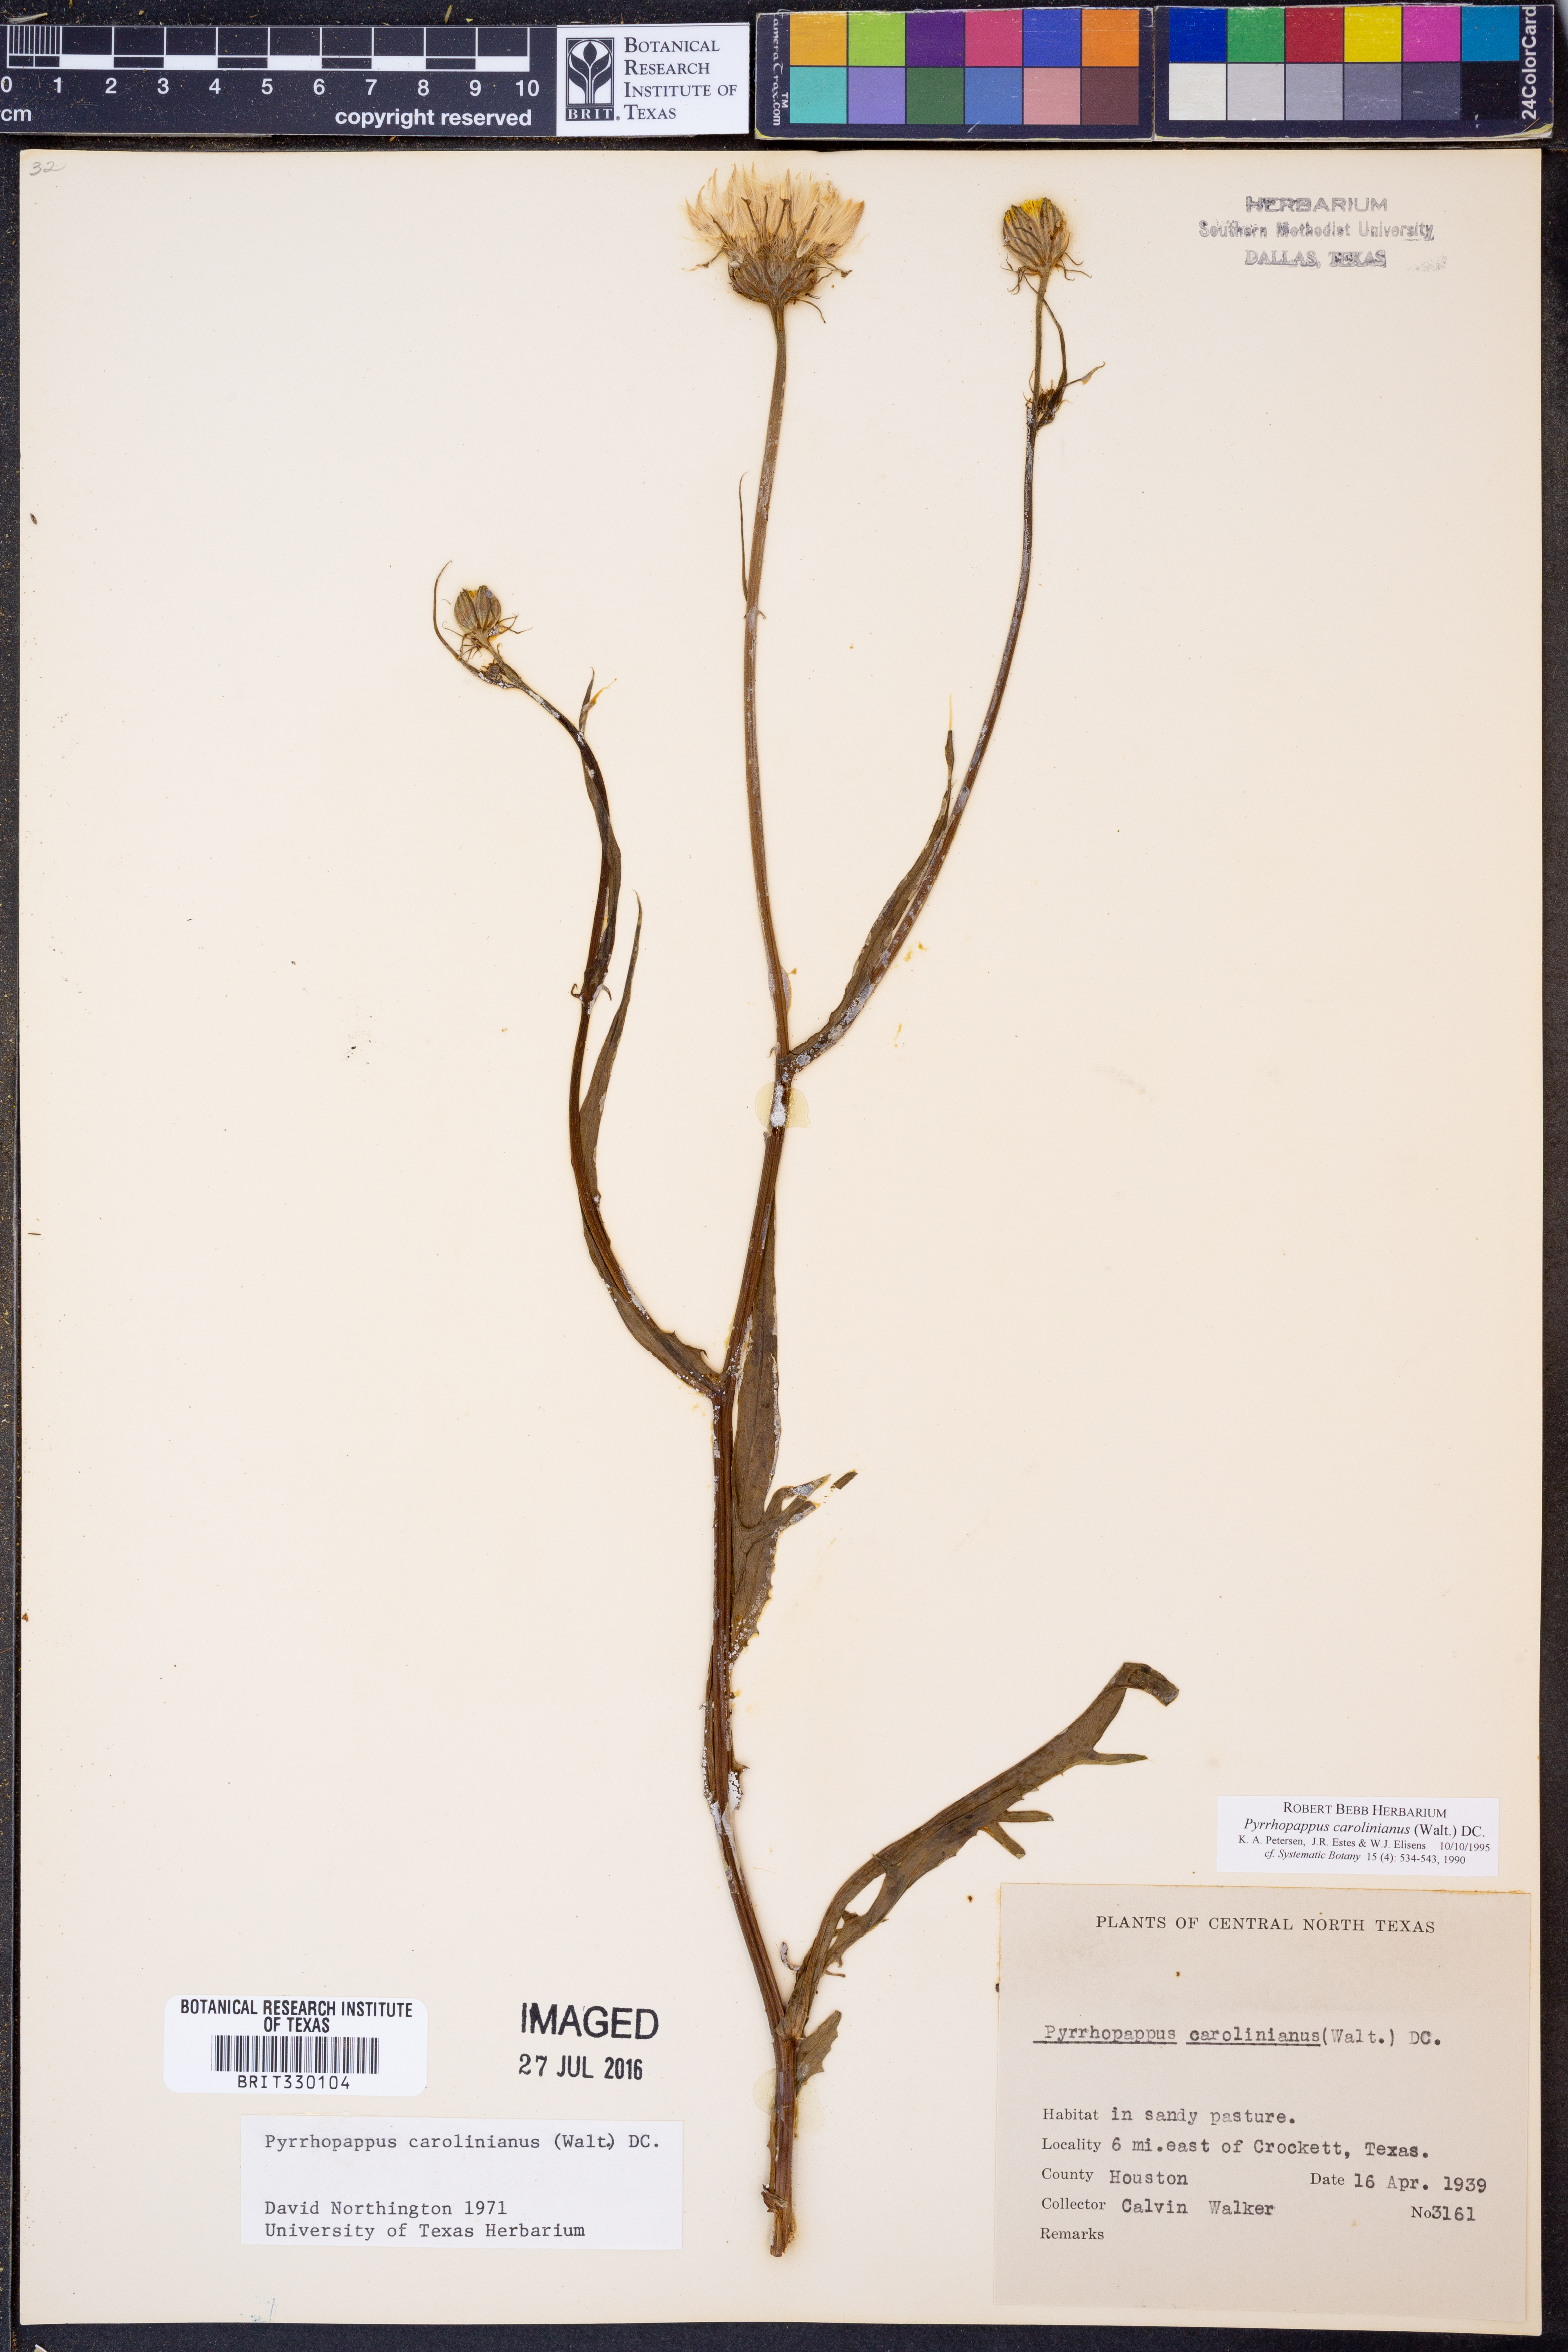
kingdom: Plantae
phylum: Tracheophyta
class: Magnoliopsida
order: Asterales
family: Asteraceae
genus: Pyrrhopappus
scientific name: Pyrrhopappus carolinianus
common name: Carolina desert-chicory
